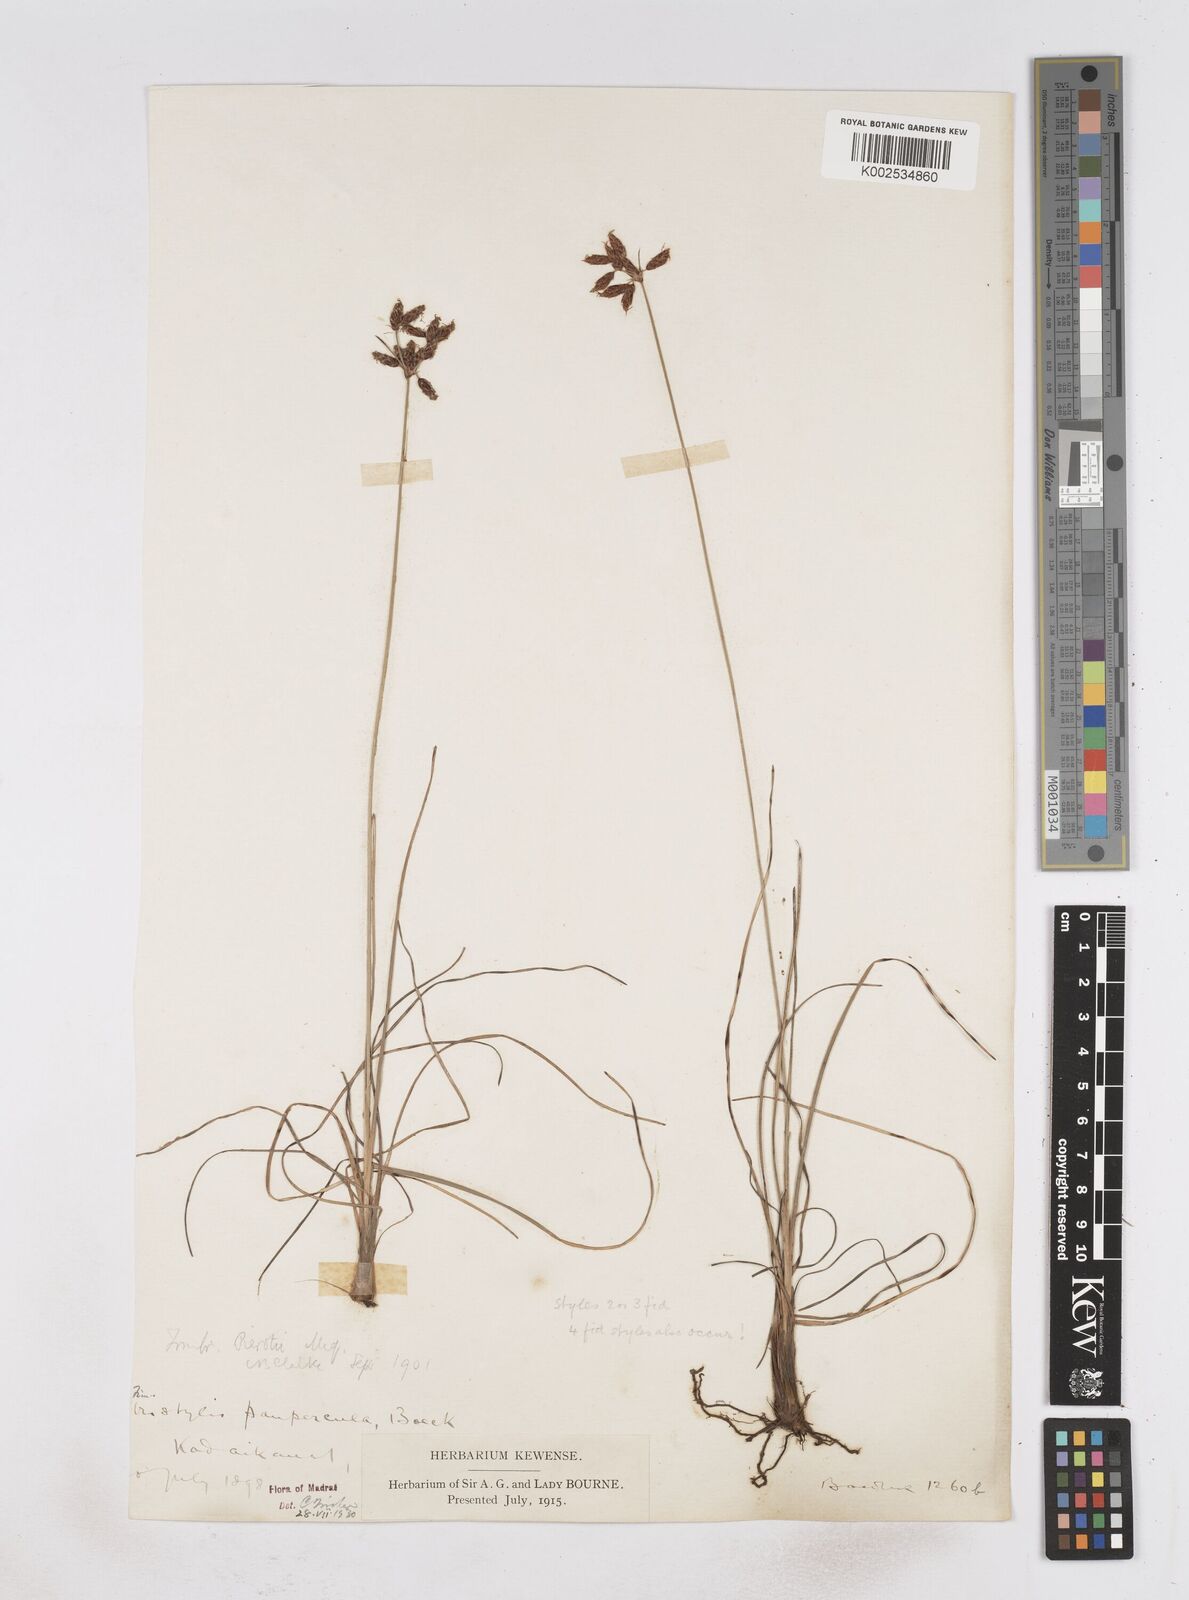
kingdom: Plantae
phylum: Tracheophyta
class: Liliopsida
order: Poales
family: Cyperaceae
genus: Fimbristylis
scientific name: Fimbristylis paupercula
